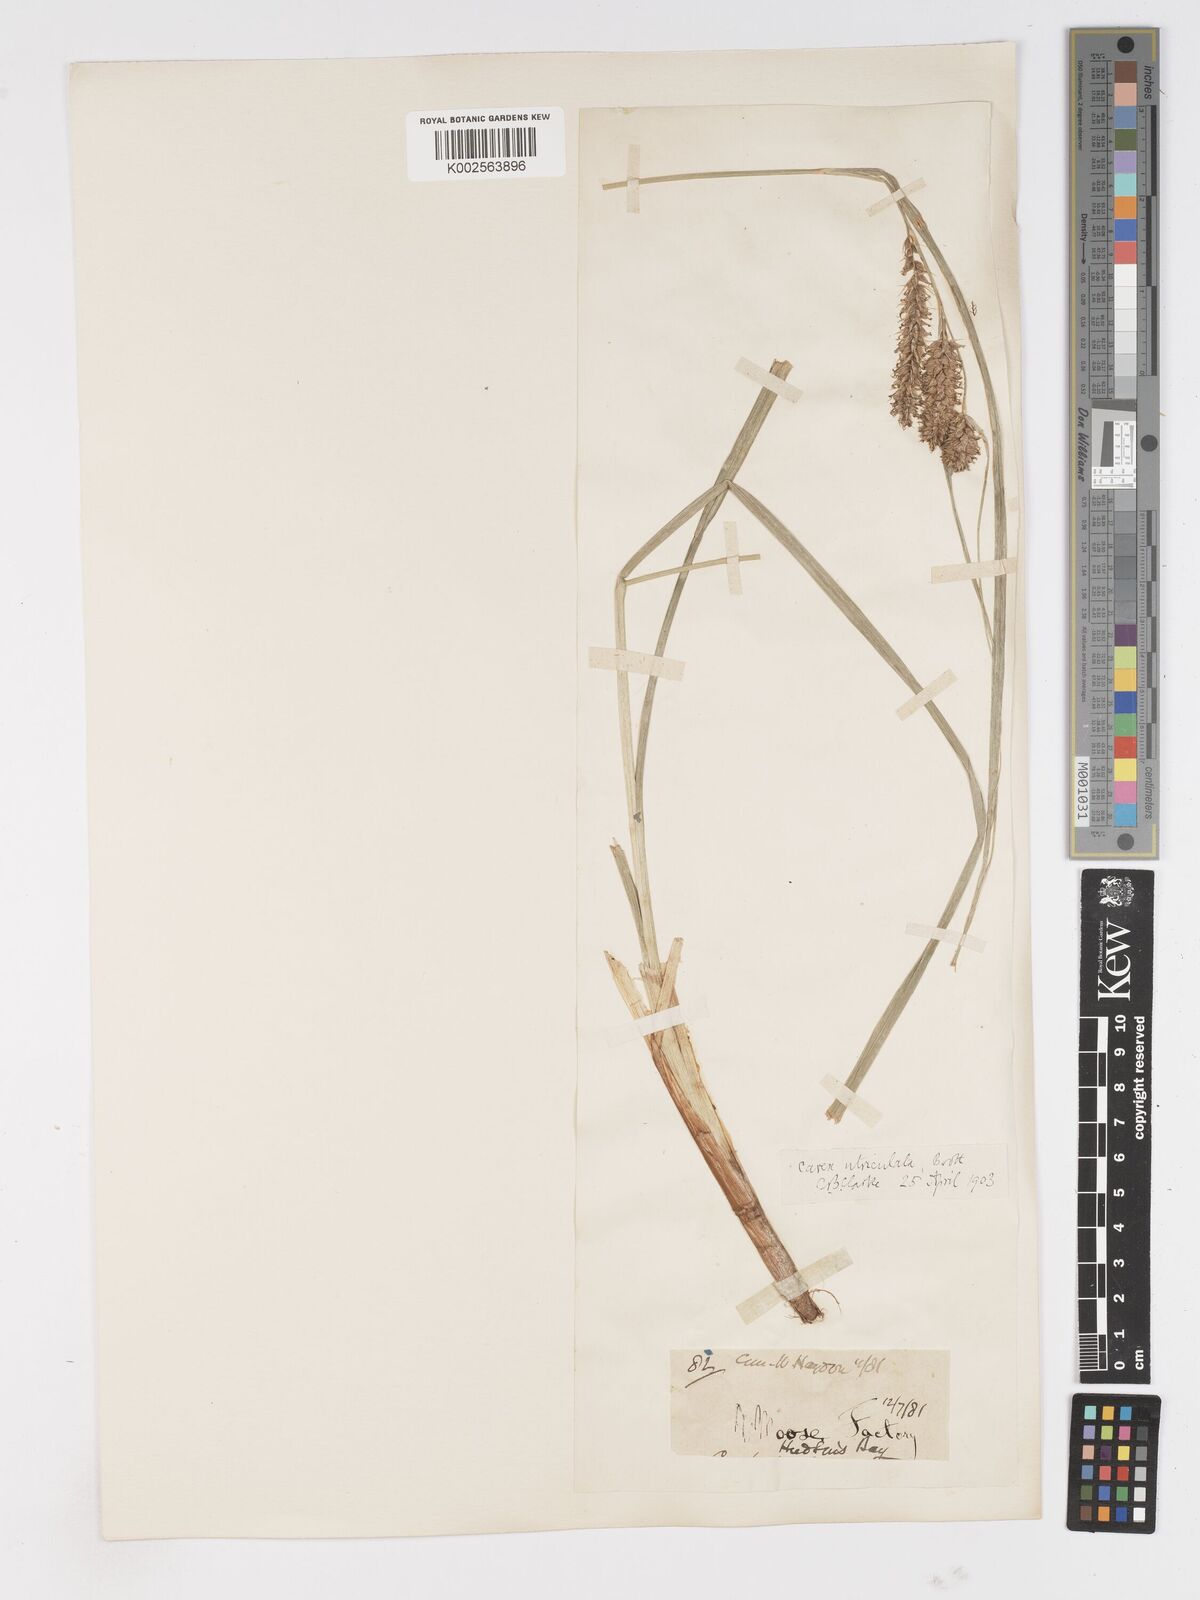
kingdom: Plantae
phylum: Tracheophyta
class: Liliopsida
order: Poales
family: Cyperaceae
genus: Carex
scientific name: Carex rostrata
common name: Bottle sedge
